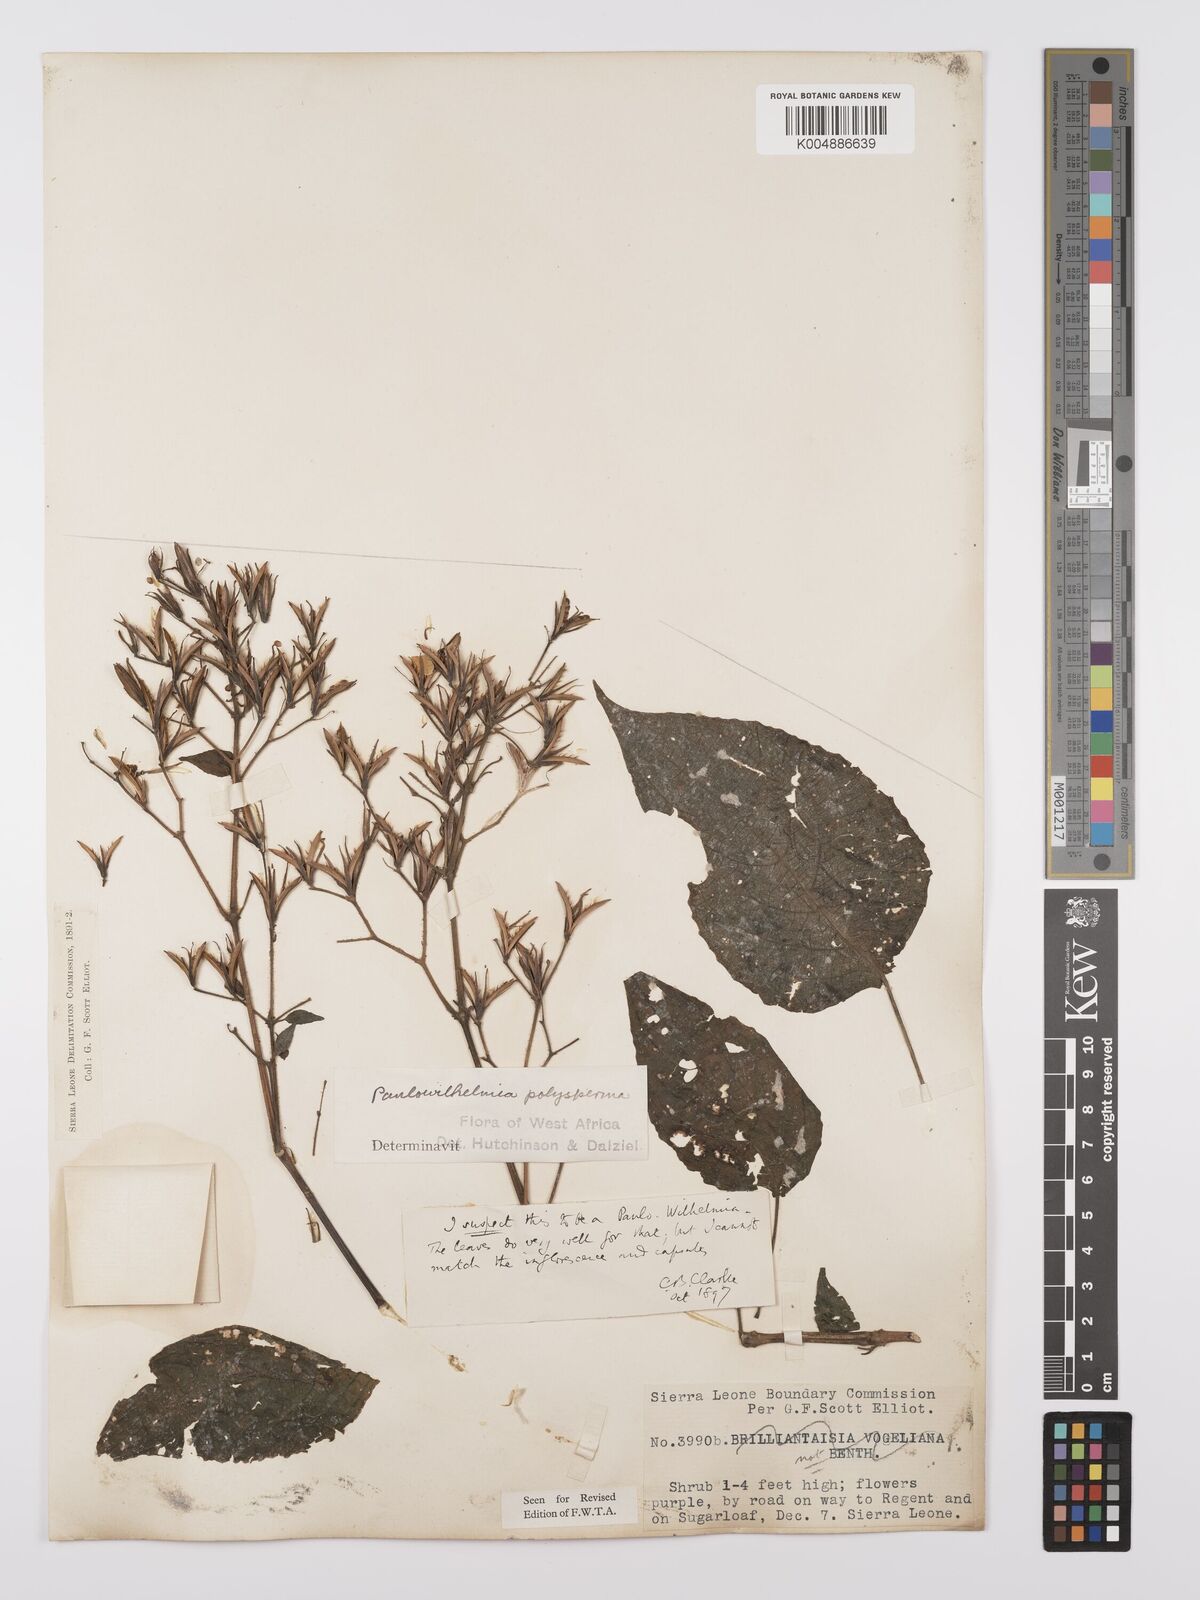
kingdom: Plantae
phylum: Tracheophyta
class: Magnoliopsida
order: Lamiales
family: Acanthaceae
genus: Eremomastax
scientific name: Eremomastax speciosa
